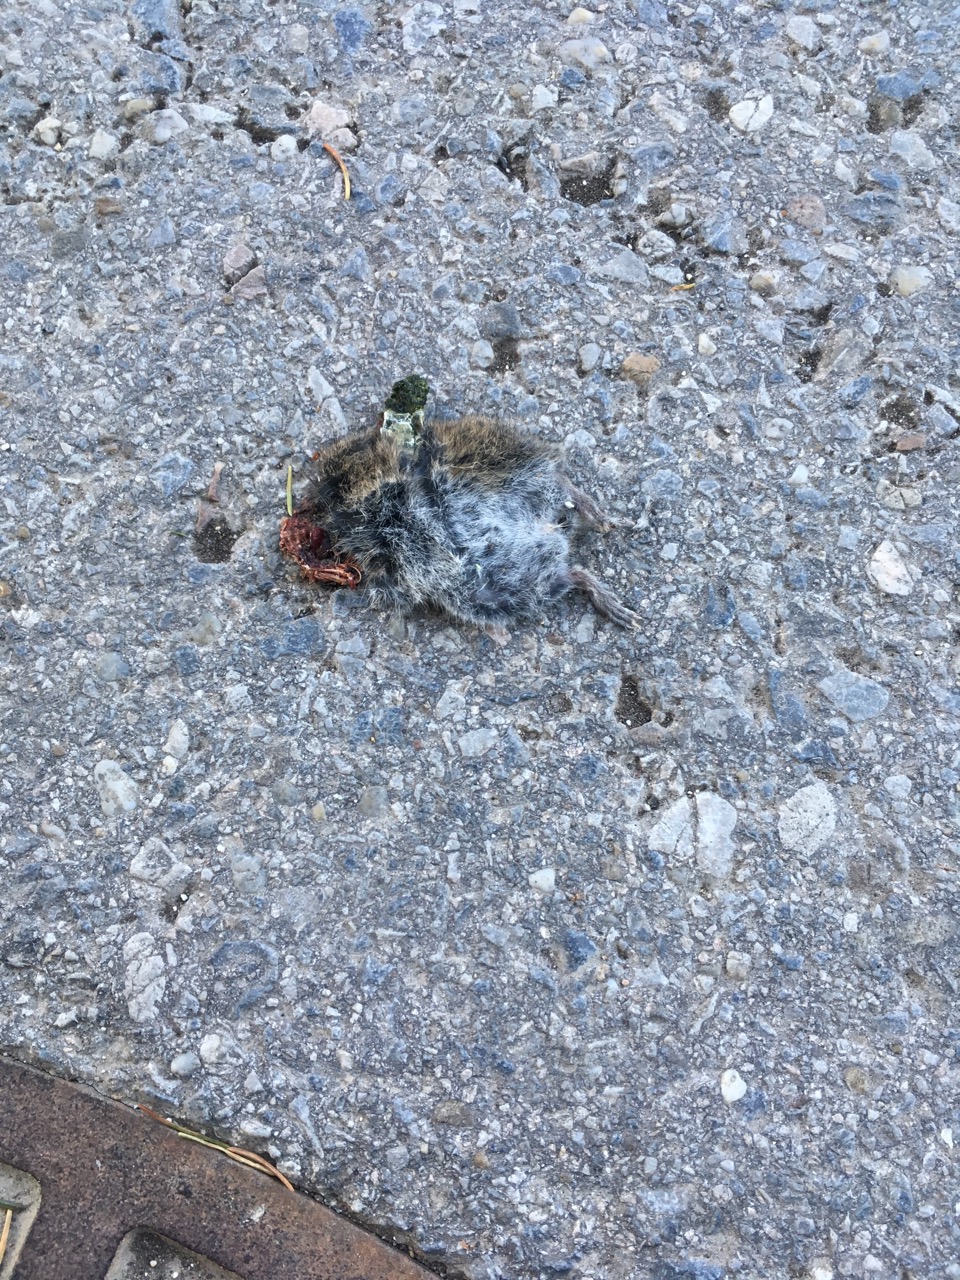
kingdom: Animalia
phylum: Chordata
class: Mammalia
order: Rodentia
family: Cricetidae
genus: Microtus
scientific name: Microtus
